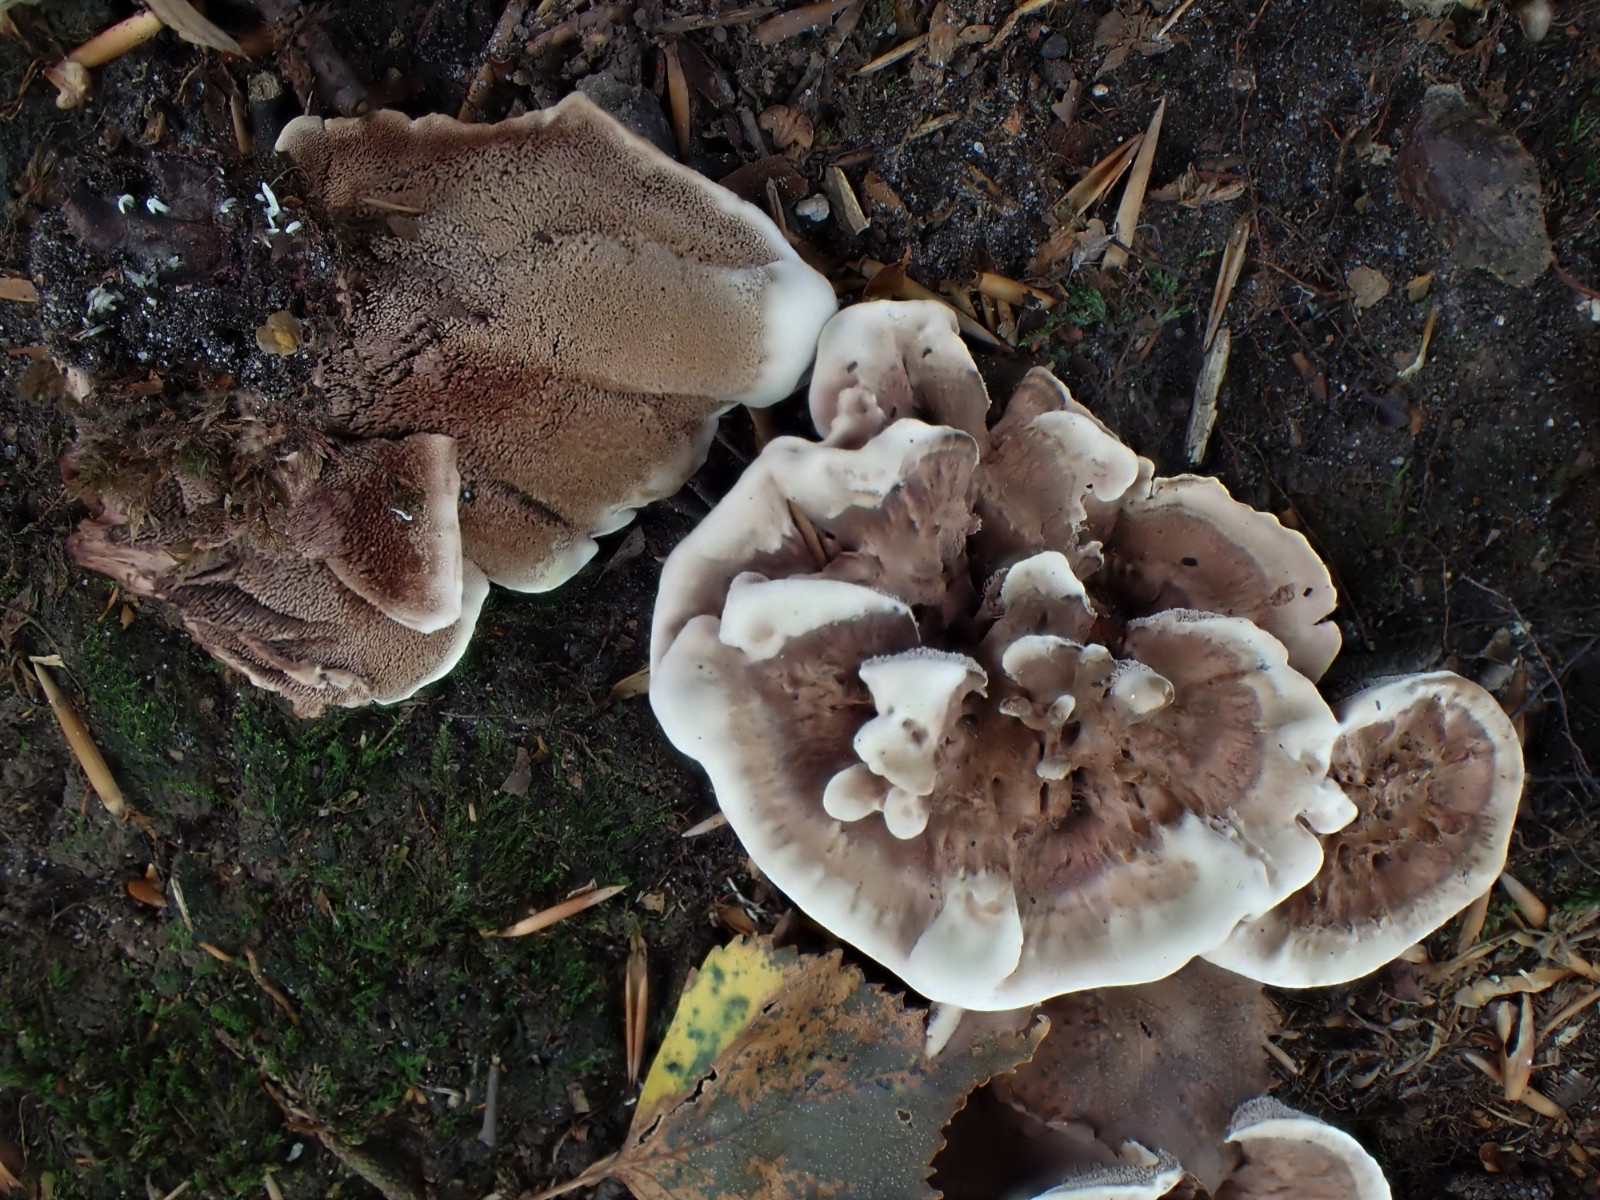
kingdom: Fungi
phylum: Basidiomycota
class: Agaricomycetes
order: Thelephorales
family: Bankeraceae
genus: Hydnellum
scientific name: Hydnellum concrescens
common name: Zoned tooth
